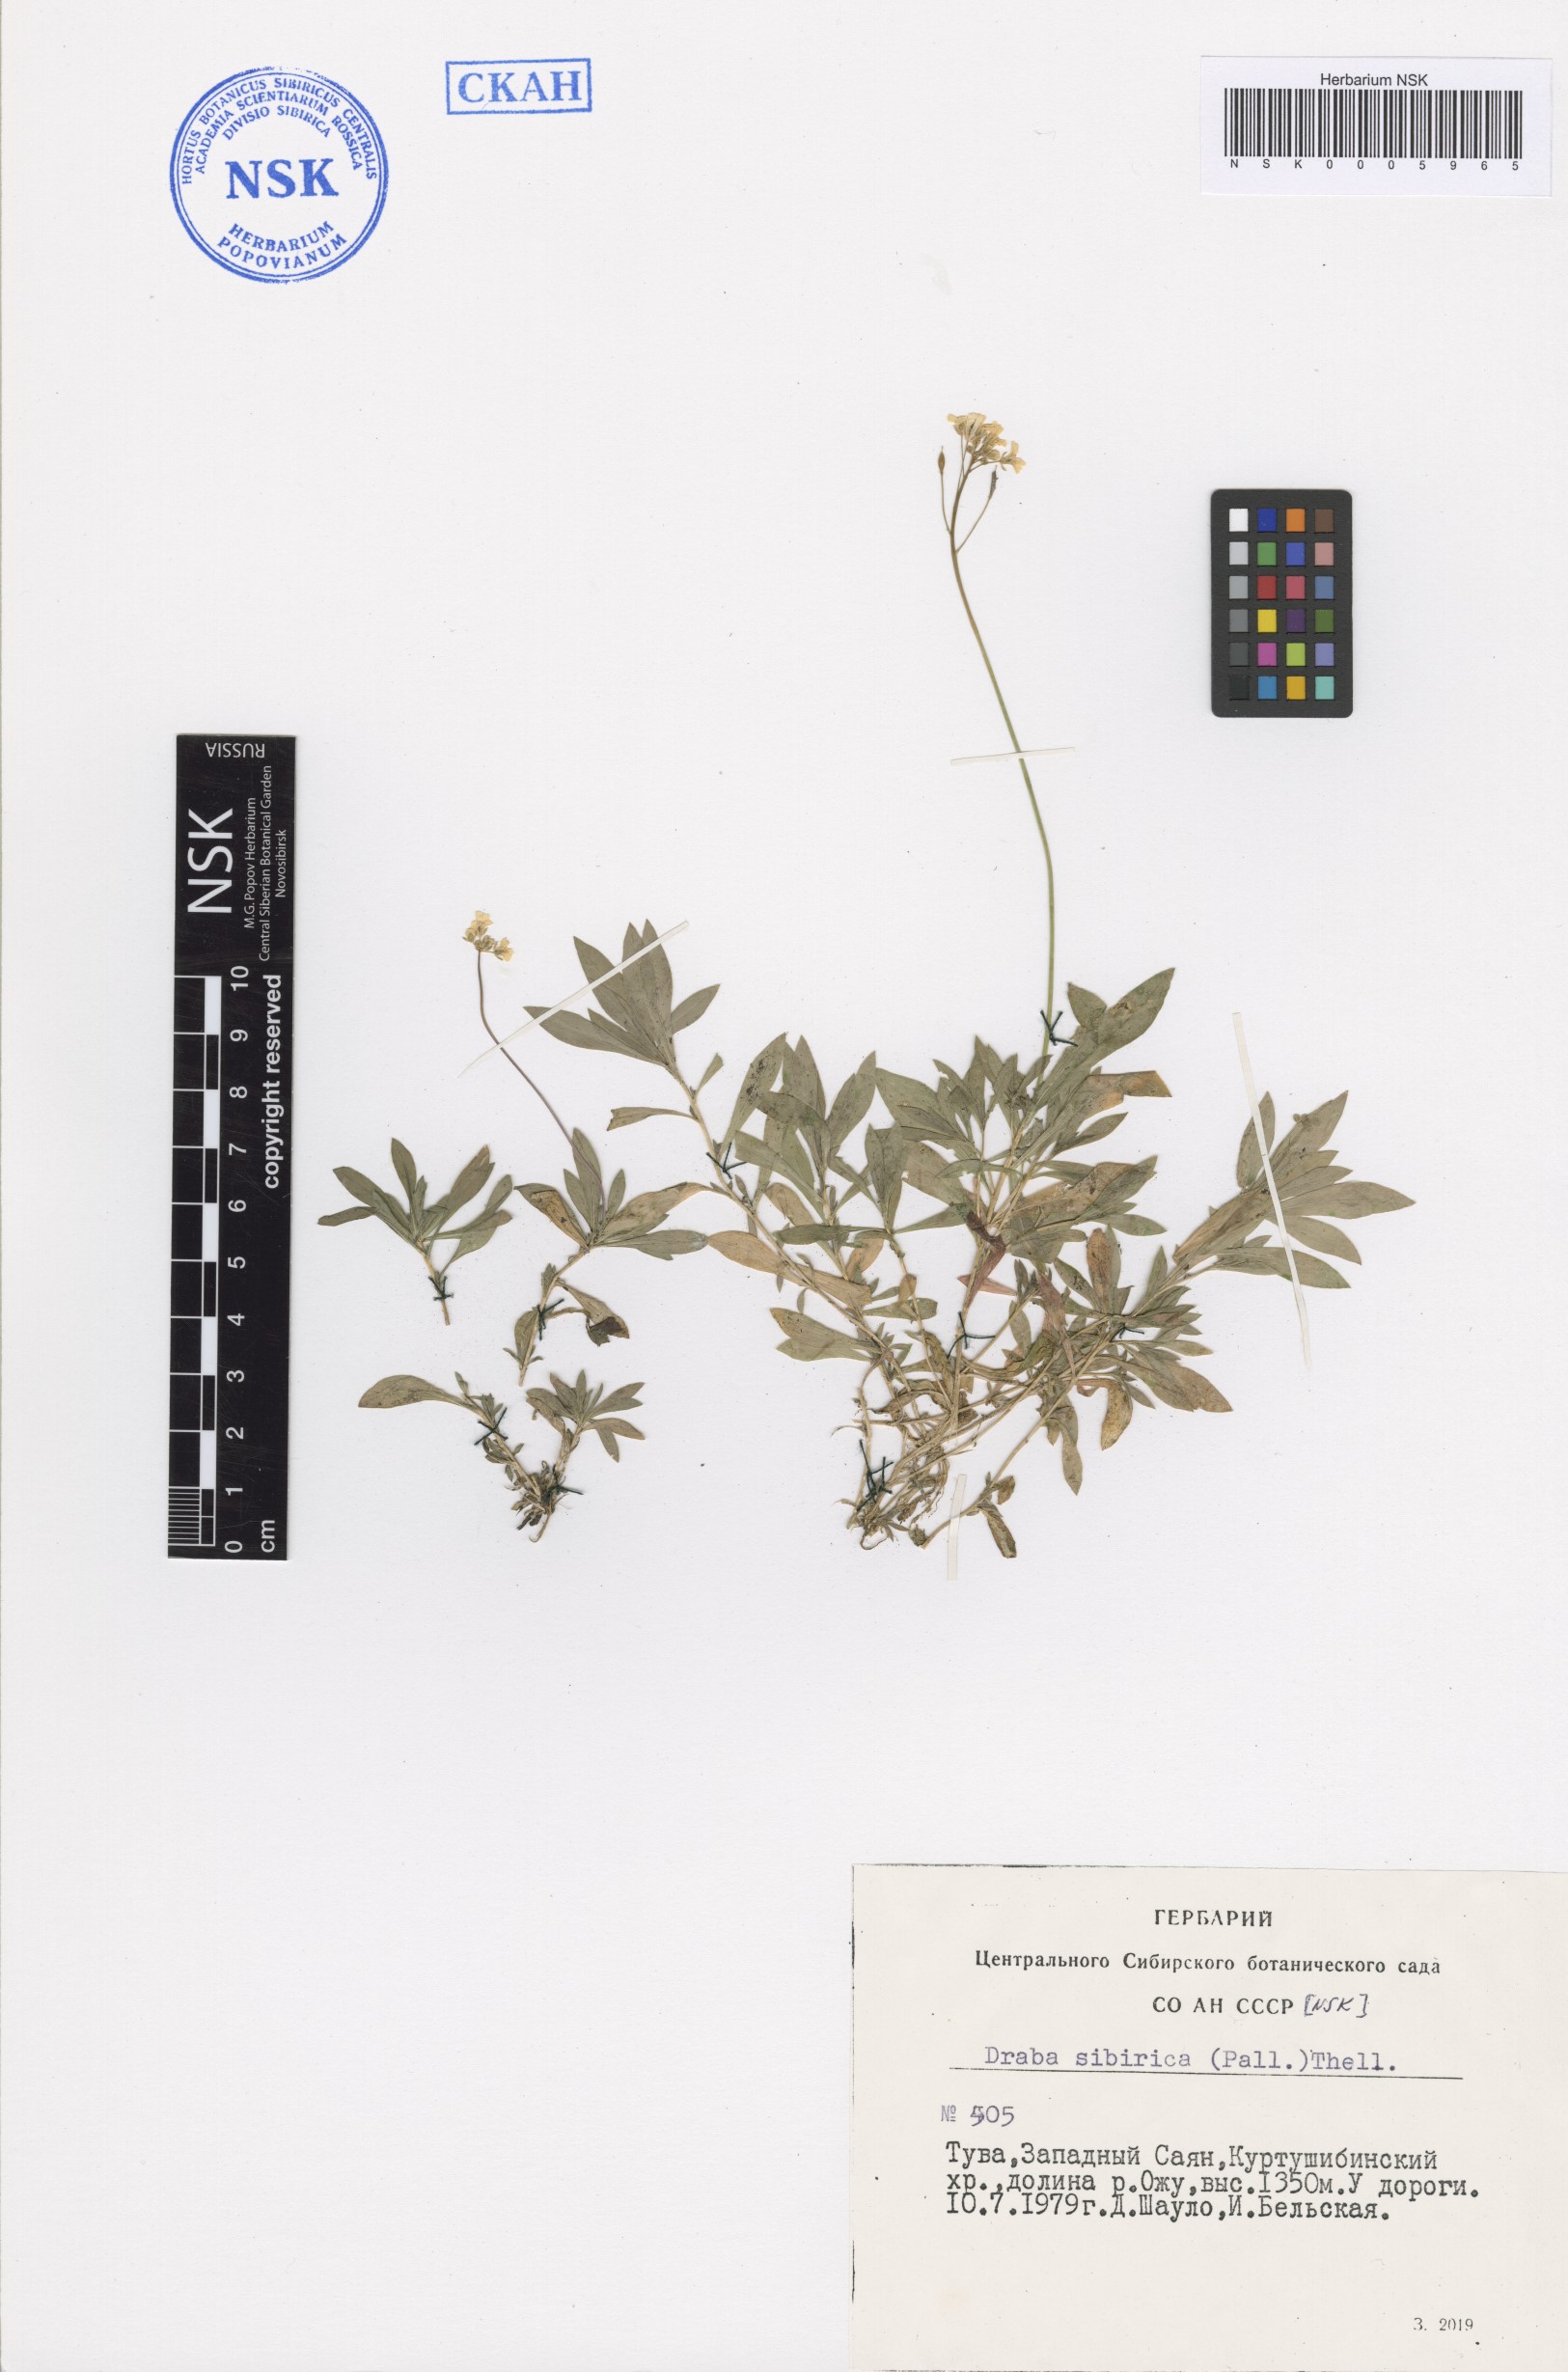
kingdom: Plantae
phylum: Tracheophyta
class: Magnoliopsida
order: Brassicales
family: Brassicaceae
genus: Draba
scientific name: Draba sibirica
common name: Siberian draba
